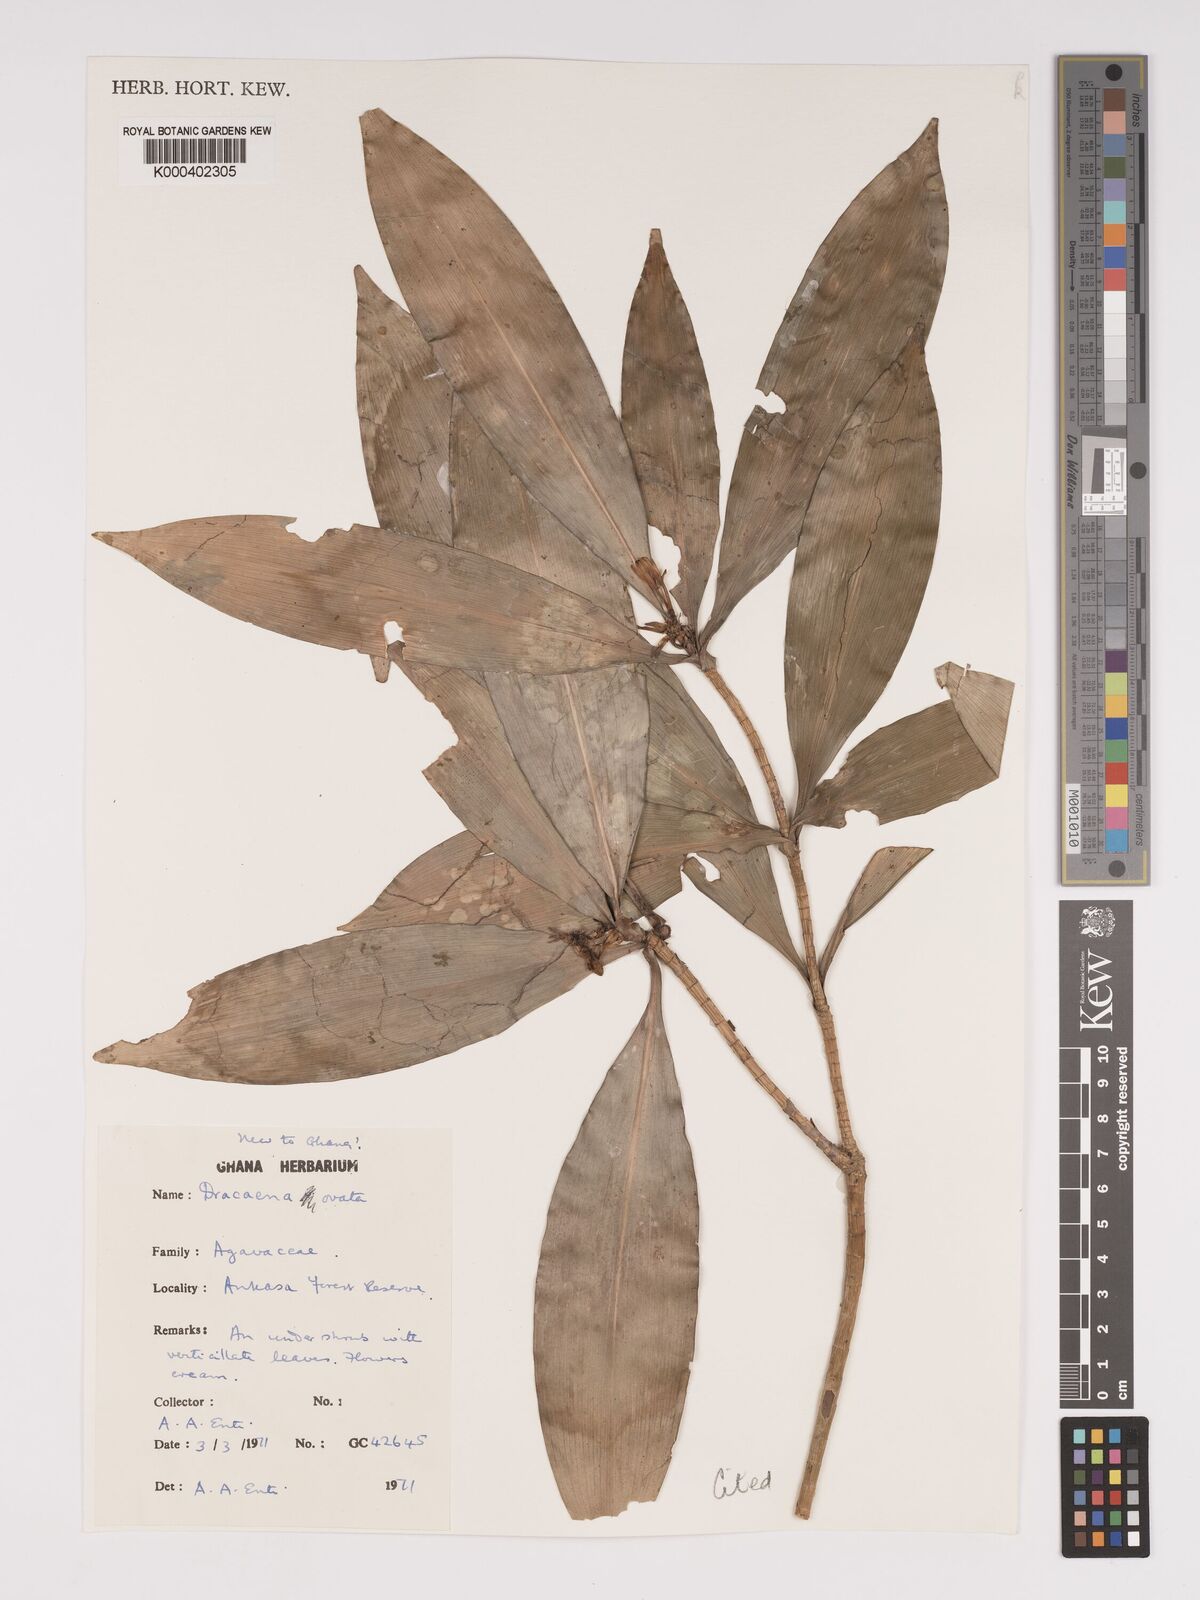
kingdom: Plantae
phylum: Tracheophyta
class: Liliopsida
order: Asparagales
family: Asparagaceae
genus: Dracaena
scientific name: Dracaena ovata
